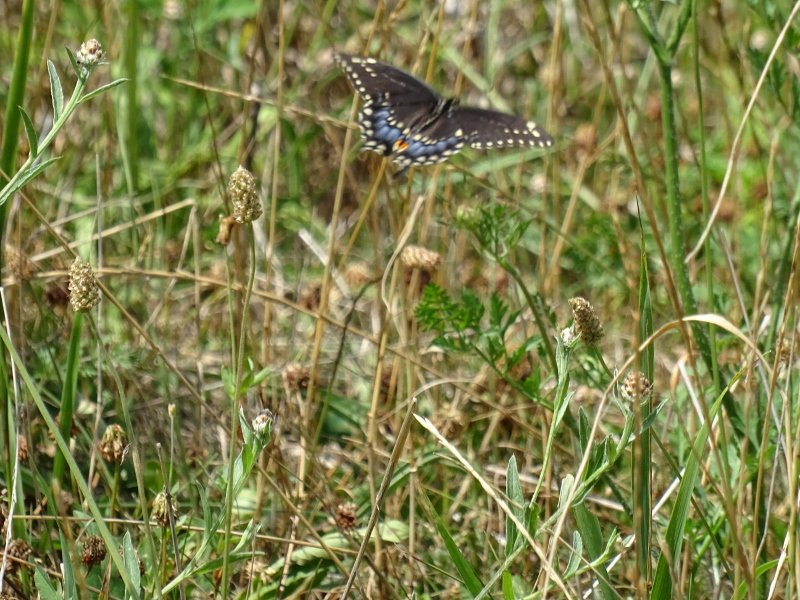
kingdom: Animalia
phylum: Arthropoda
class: Insecta
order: Lepidoptera
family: Papilionidae
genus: Papilio
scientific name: Papilio polyxenes
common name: Black Swallowtail
